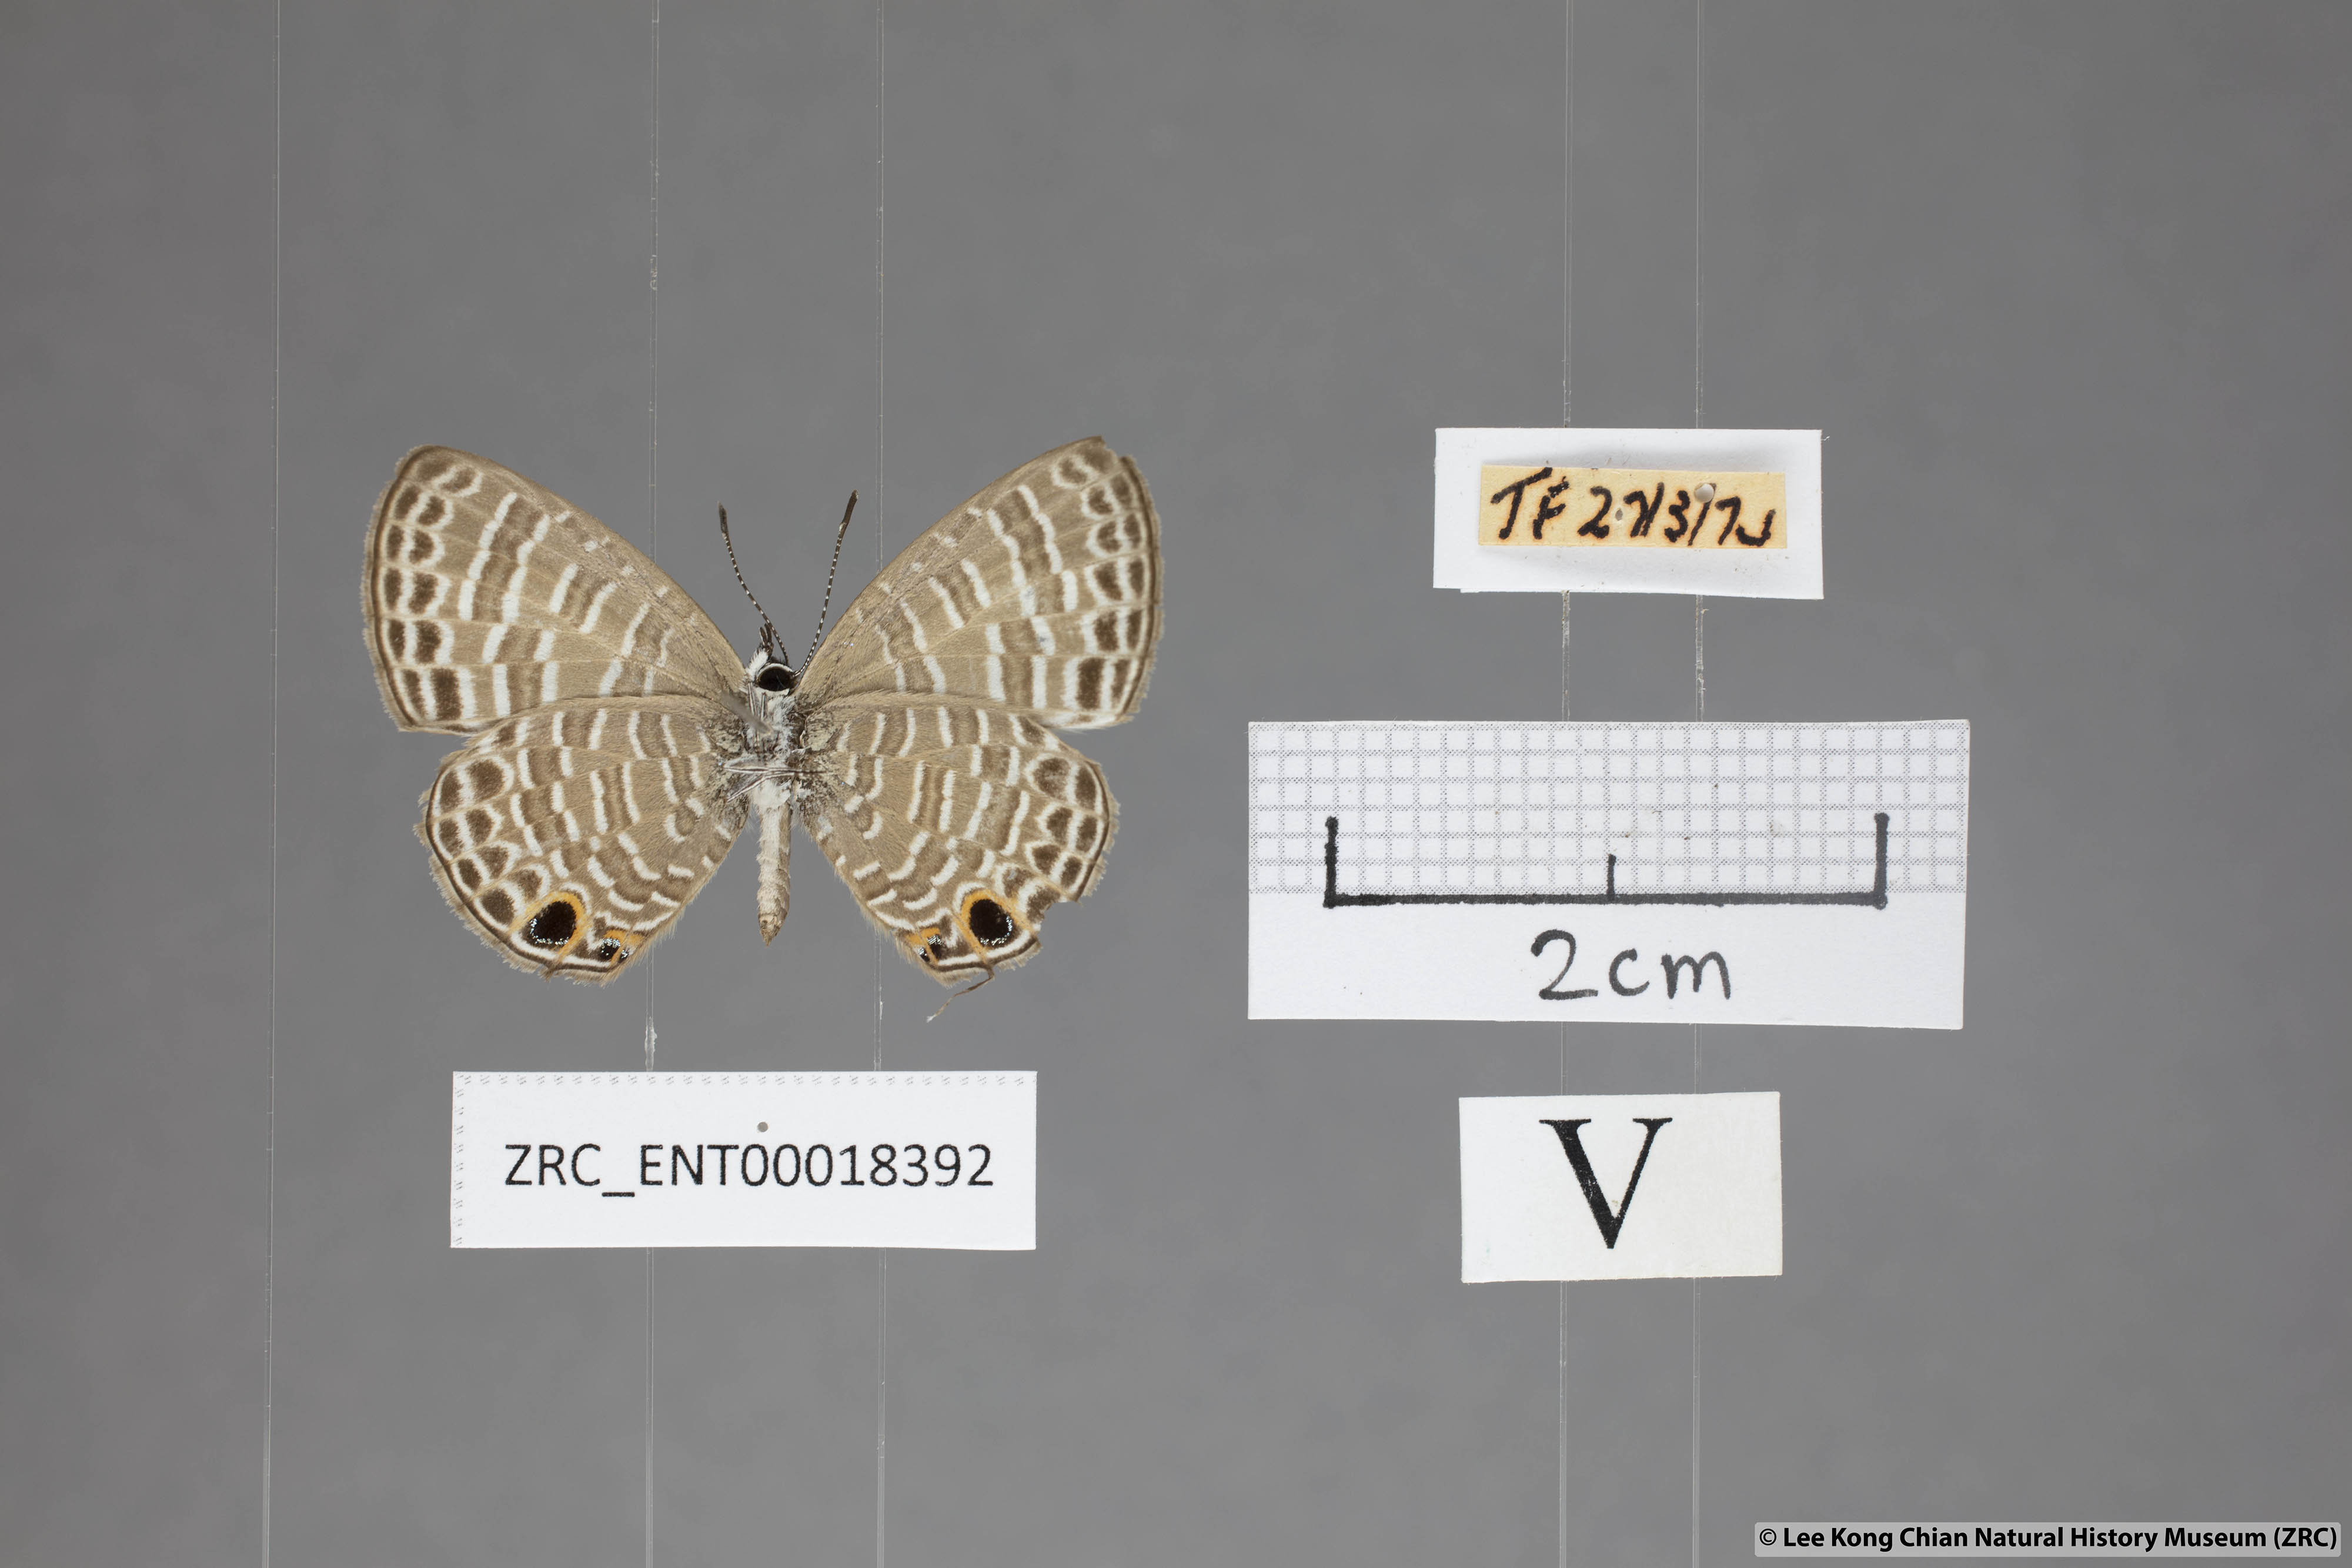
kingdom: Animalia
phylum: Arthropoda
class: Insecta
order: Lepidoptera
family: Lycaenidae
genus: Nacaduba
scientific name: Nacaduba kurava
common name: Transparent 6-line blue
